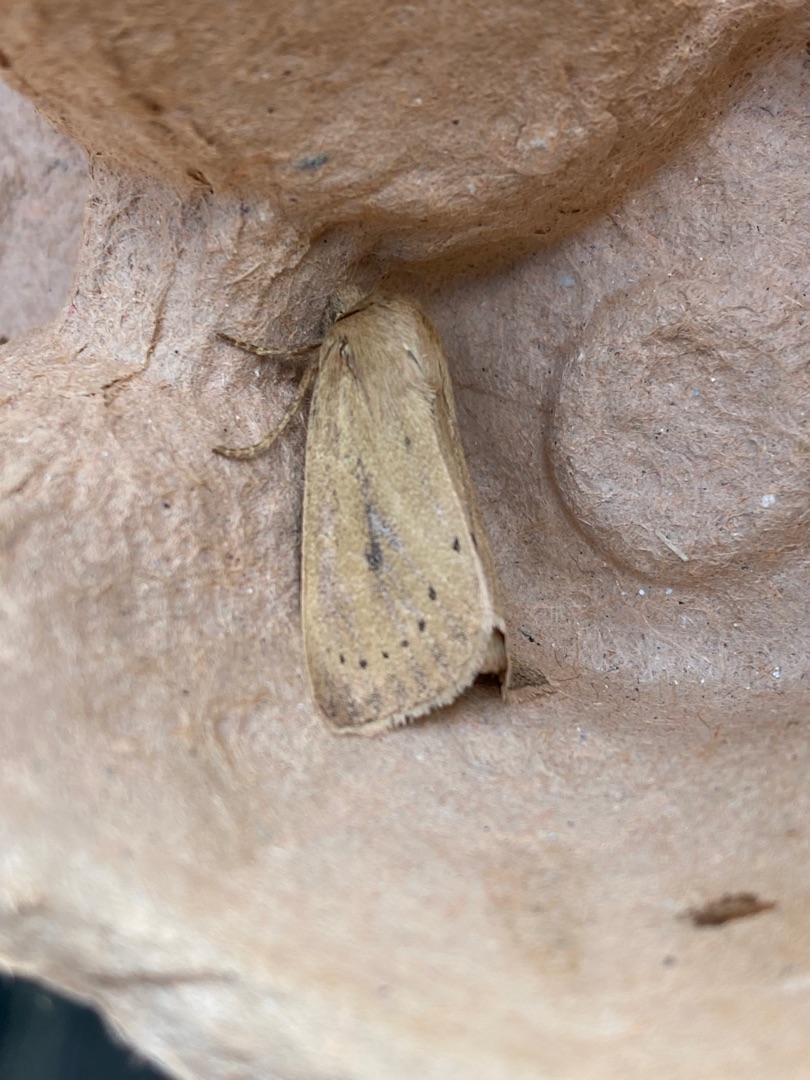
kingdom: Animalia
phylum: Arthropoda
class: Insecta
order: Lepidoptera
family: Noctuidae
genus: Globia
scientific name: Globia algae
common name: Tegningsløs stængelborer
